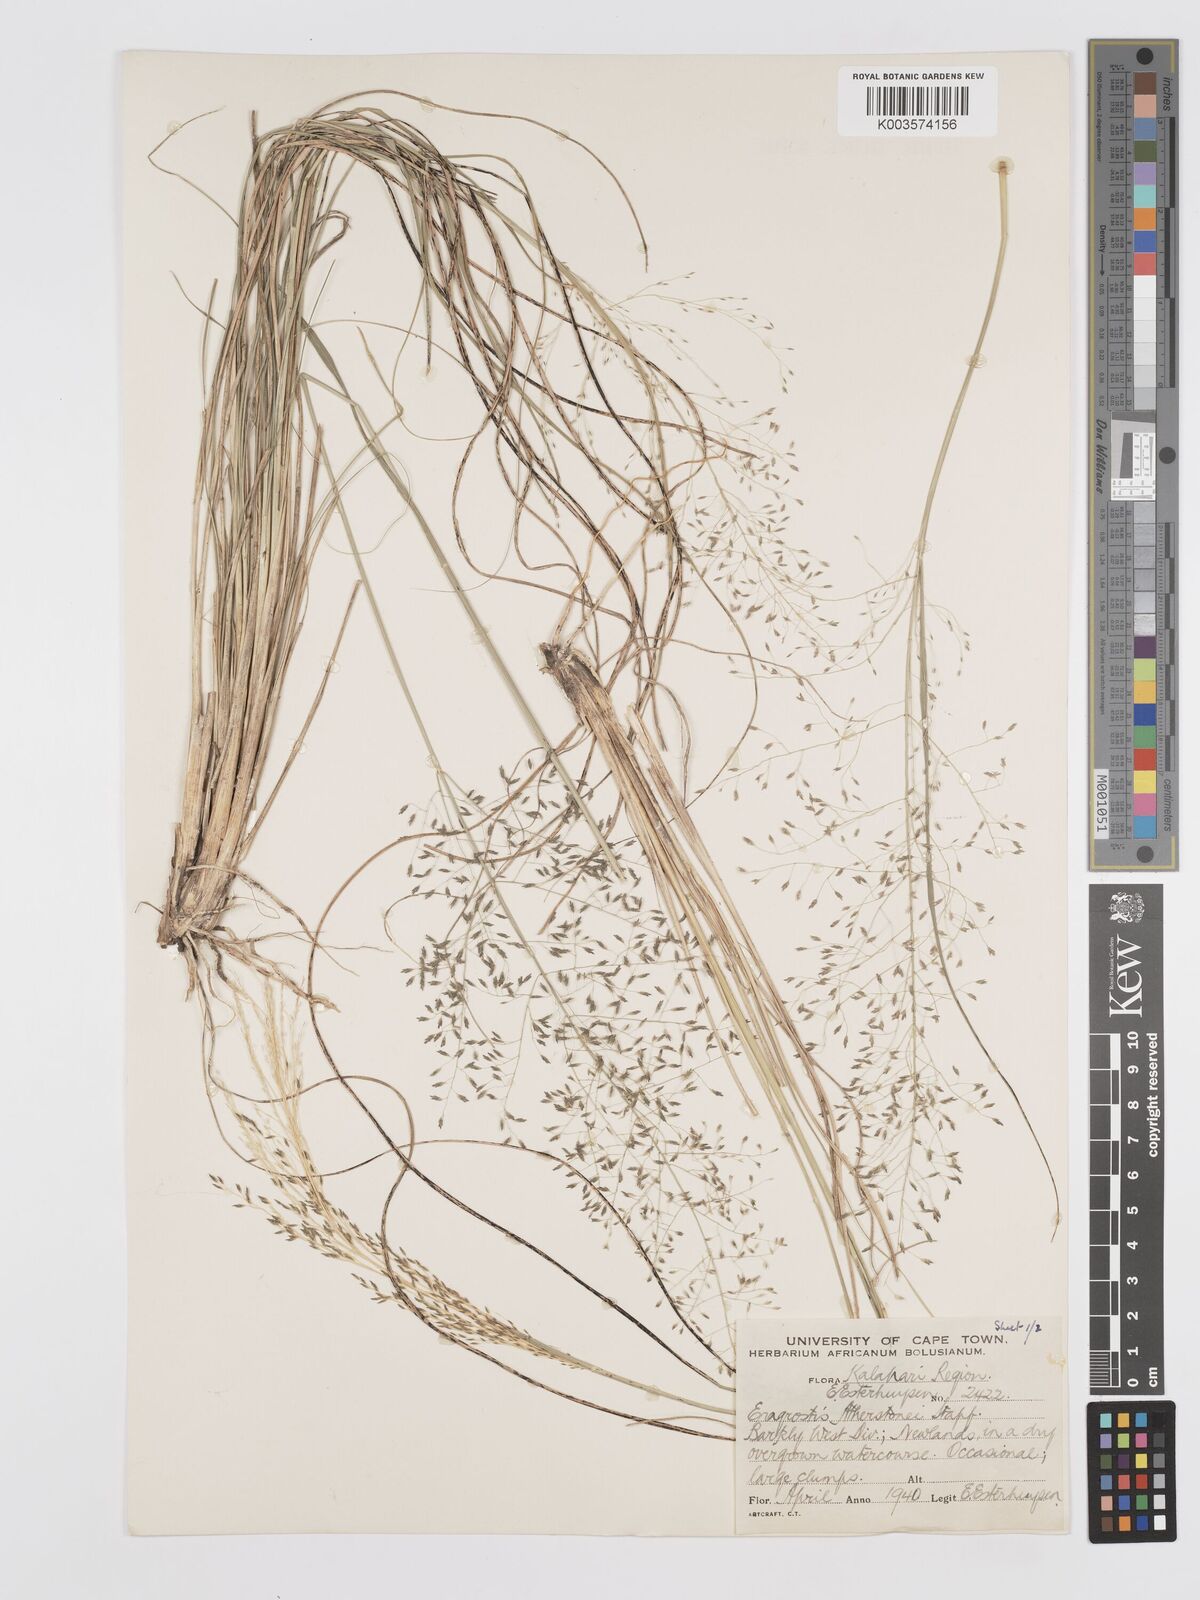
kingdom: Plantae
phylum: Tracheophyta
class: Liliopsida
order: Poales
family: Poaceae
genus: Eragrostis
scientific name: Eragrostis cylindriflora
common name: Cylinderflower lovegrass
